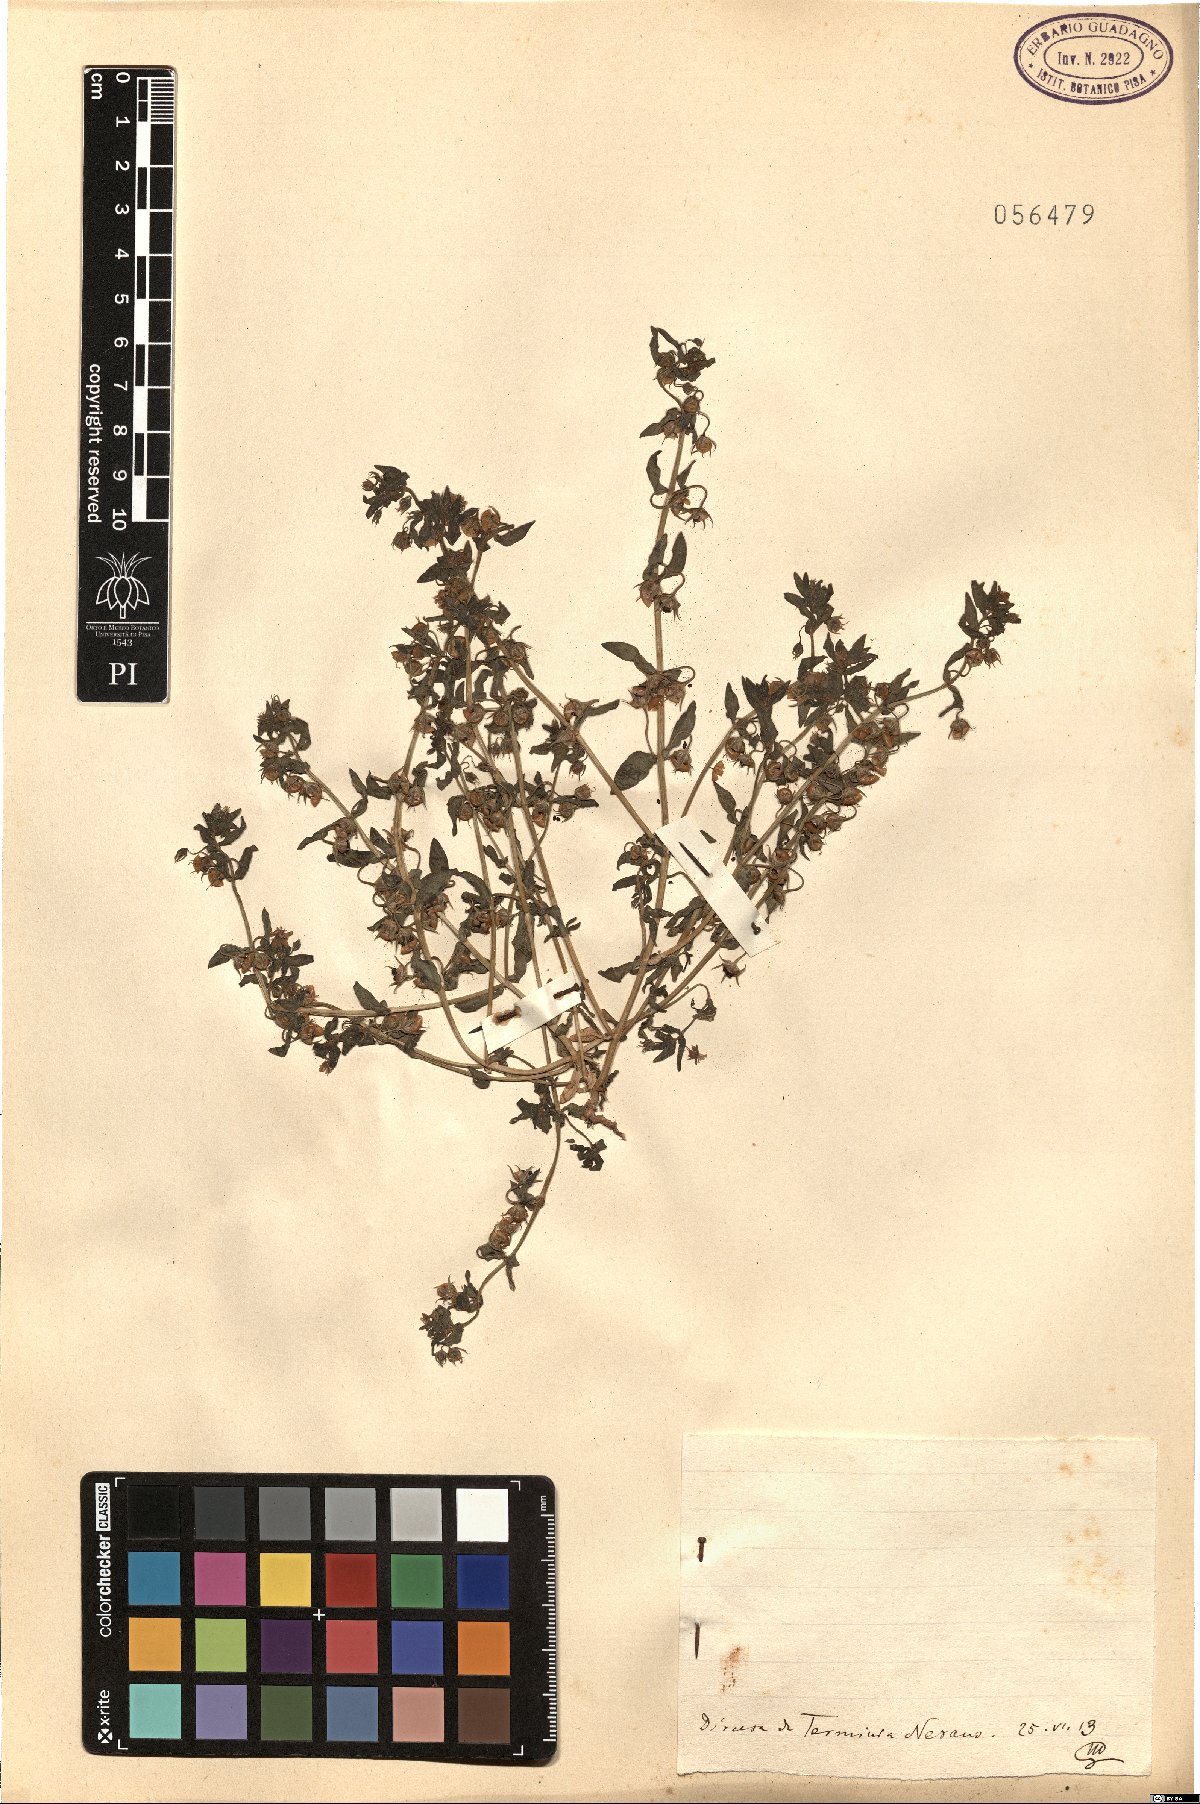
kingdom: Plantae
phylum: Tracheophyta
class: Magnoliopsida
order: Ericales
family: Primulaceae
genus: Lysimachia
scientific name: Lysimachia Anagallis spec
